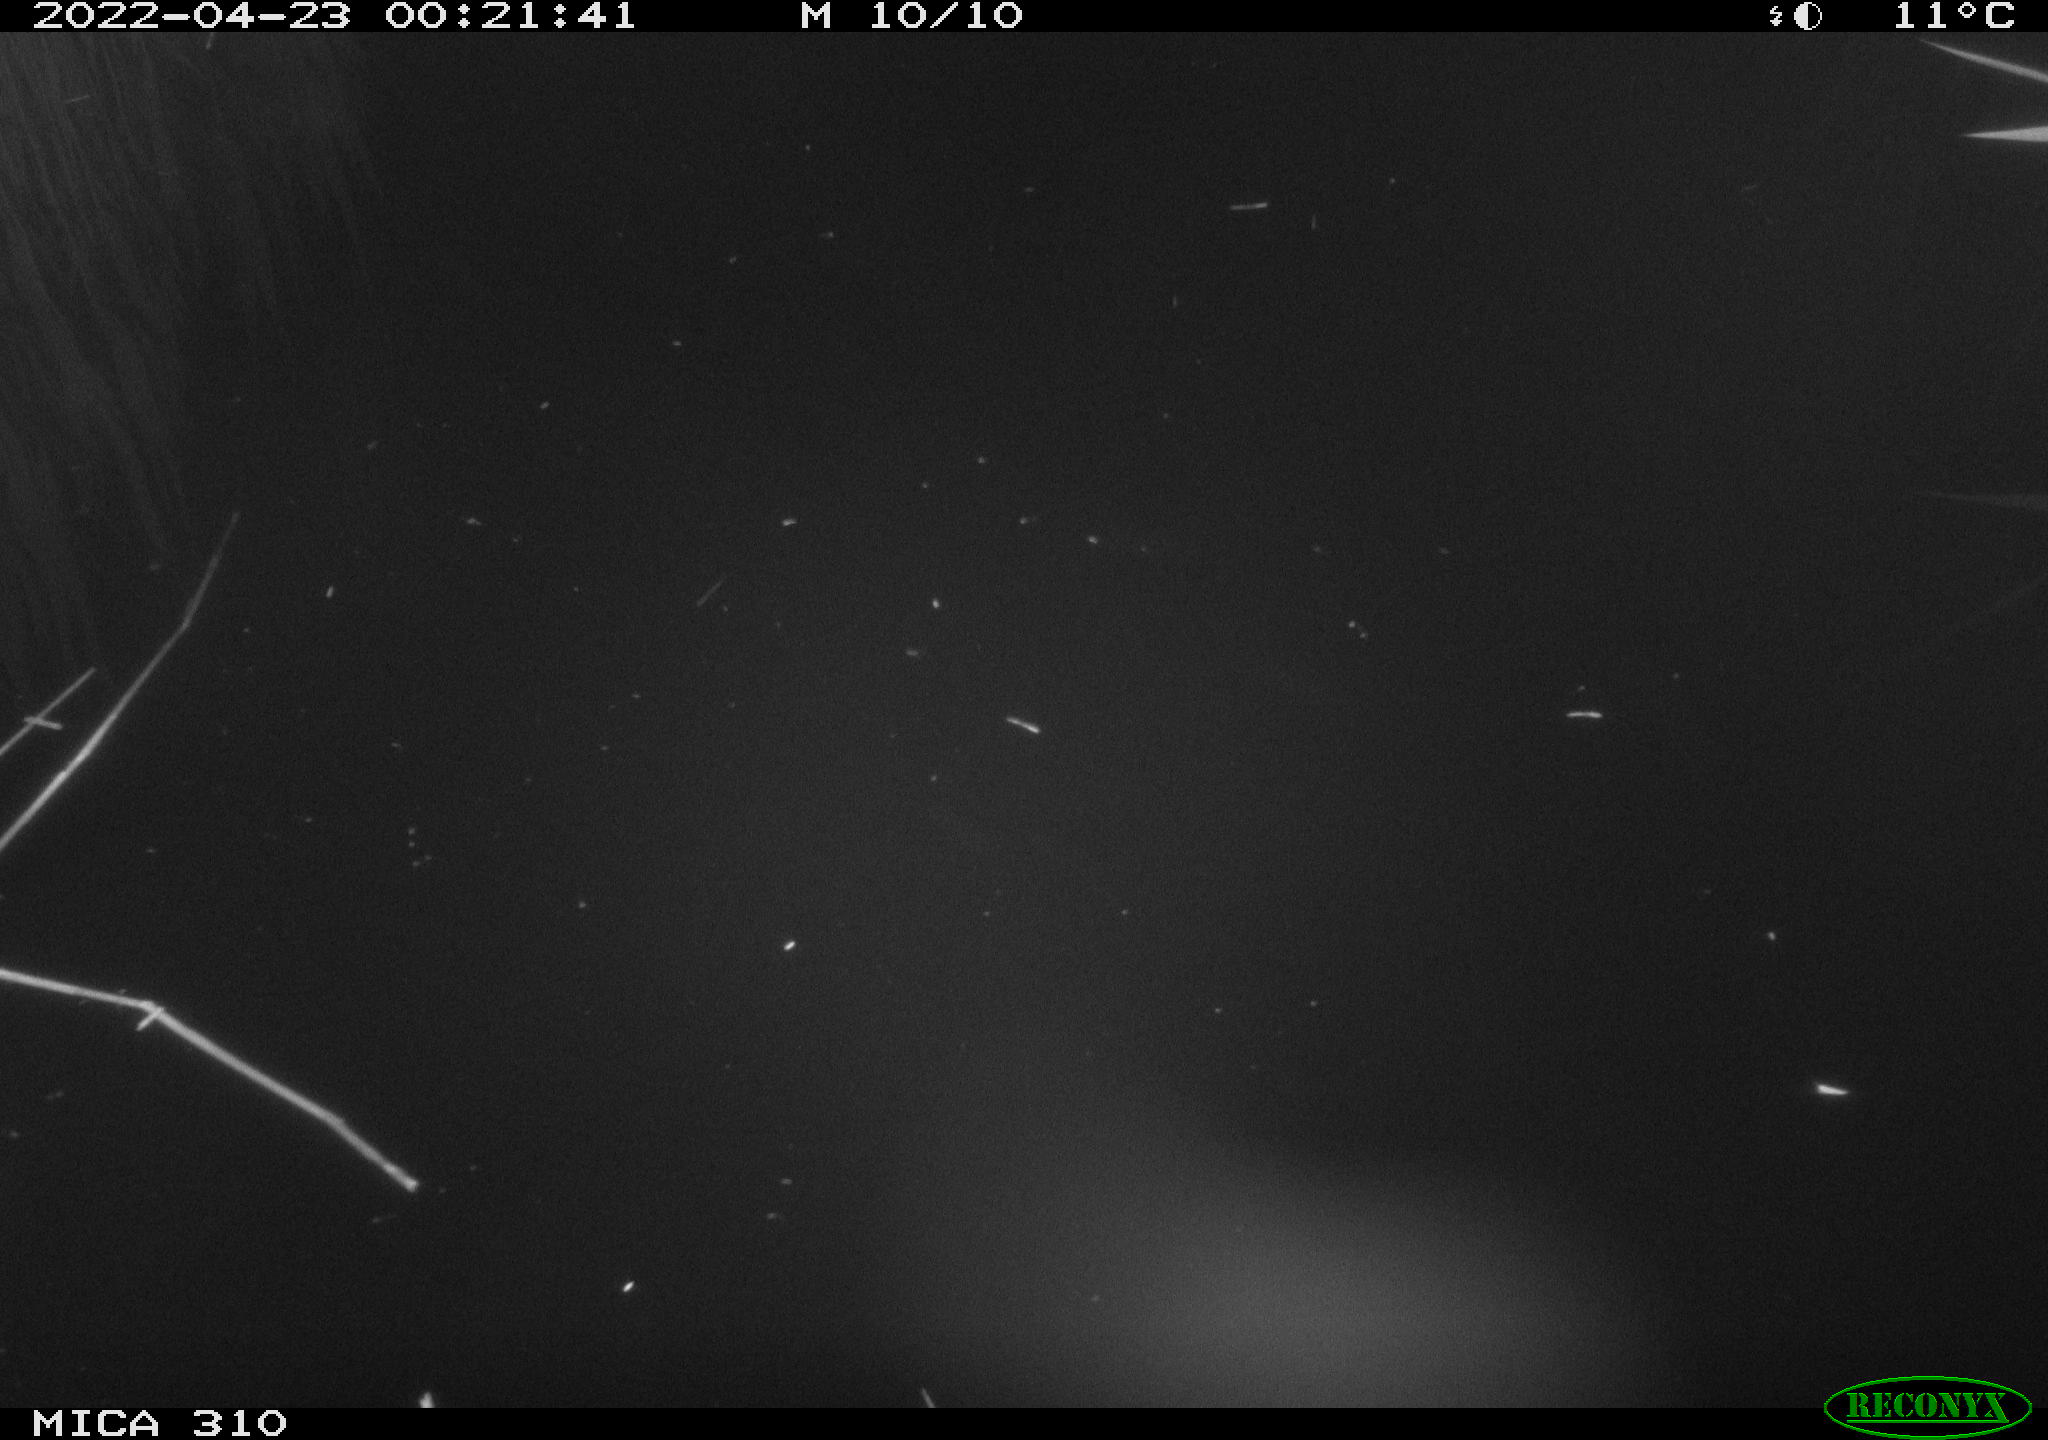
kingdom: Animalia
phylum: Chordata
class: Aves
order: Anseriformes
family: Anatidae
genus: Anas
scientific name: Anas platyrhynchos
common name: Mallard
